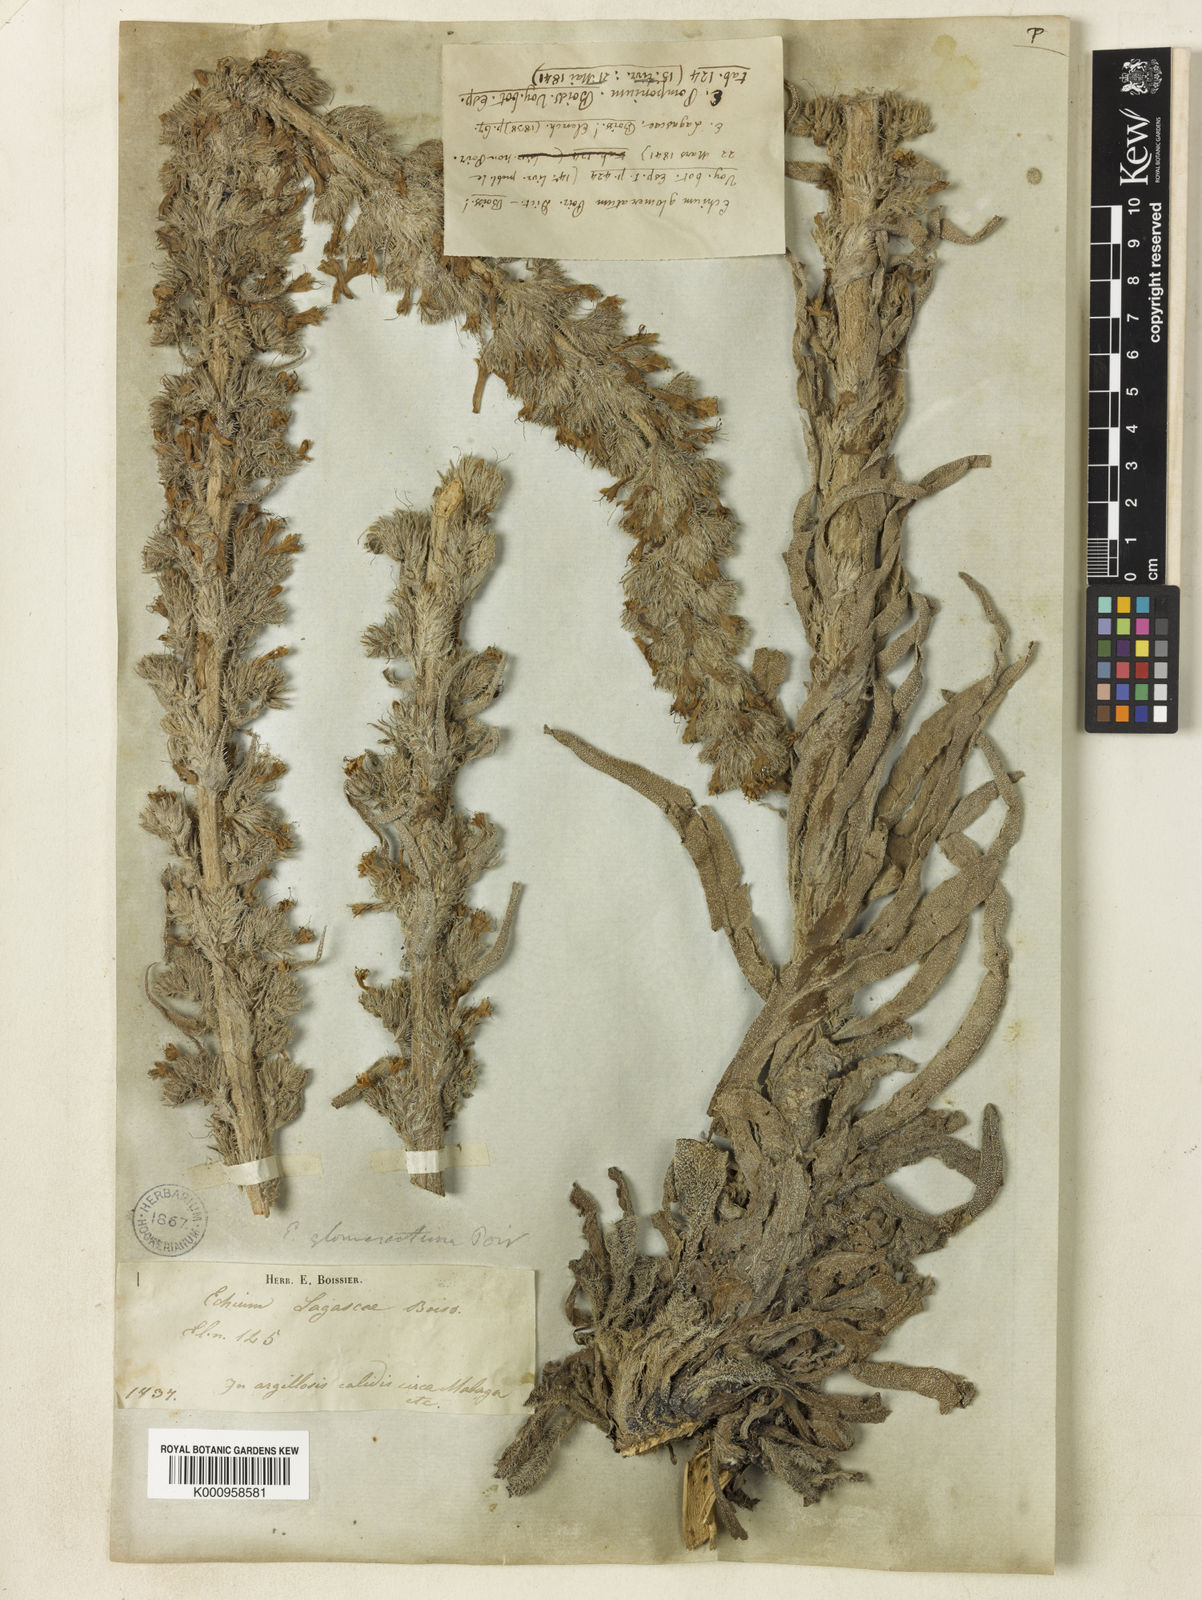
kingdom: Plantae
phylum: Tracheophyta
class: Magnoliopsida
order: Boraginales
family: Boraginaceae
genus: Echium
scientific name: Echium boissieri
